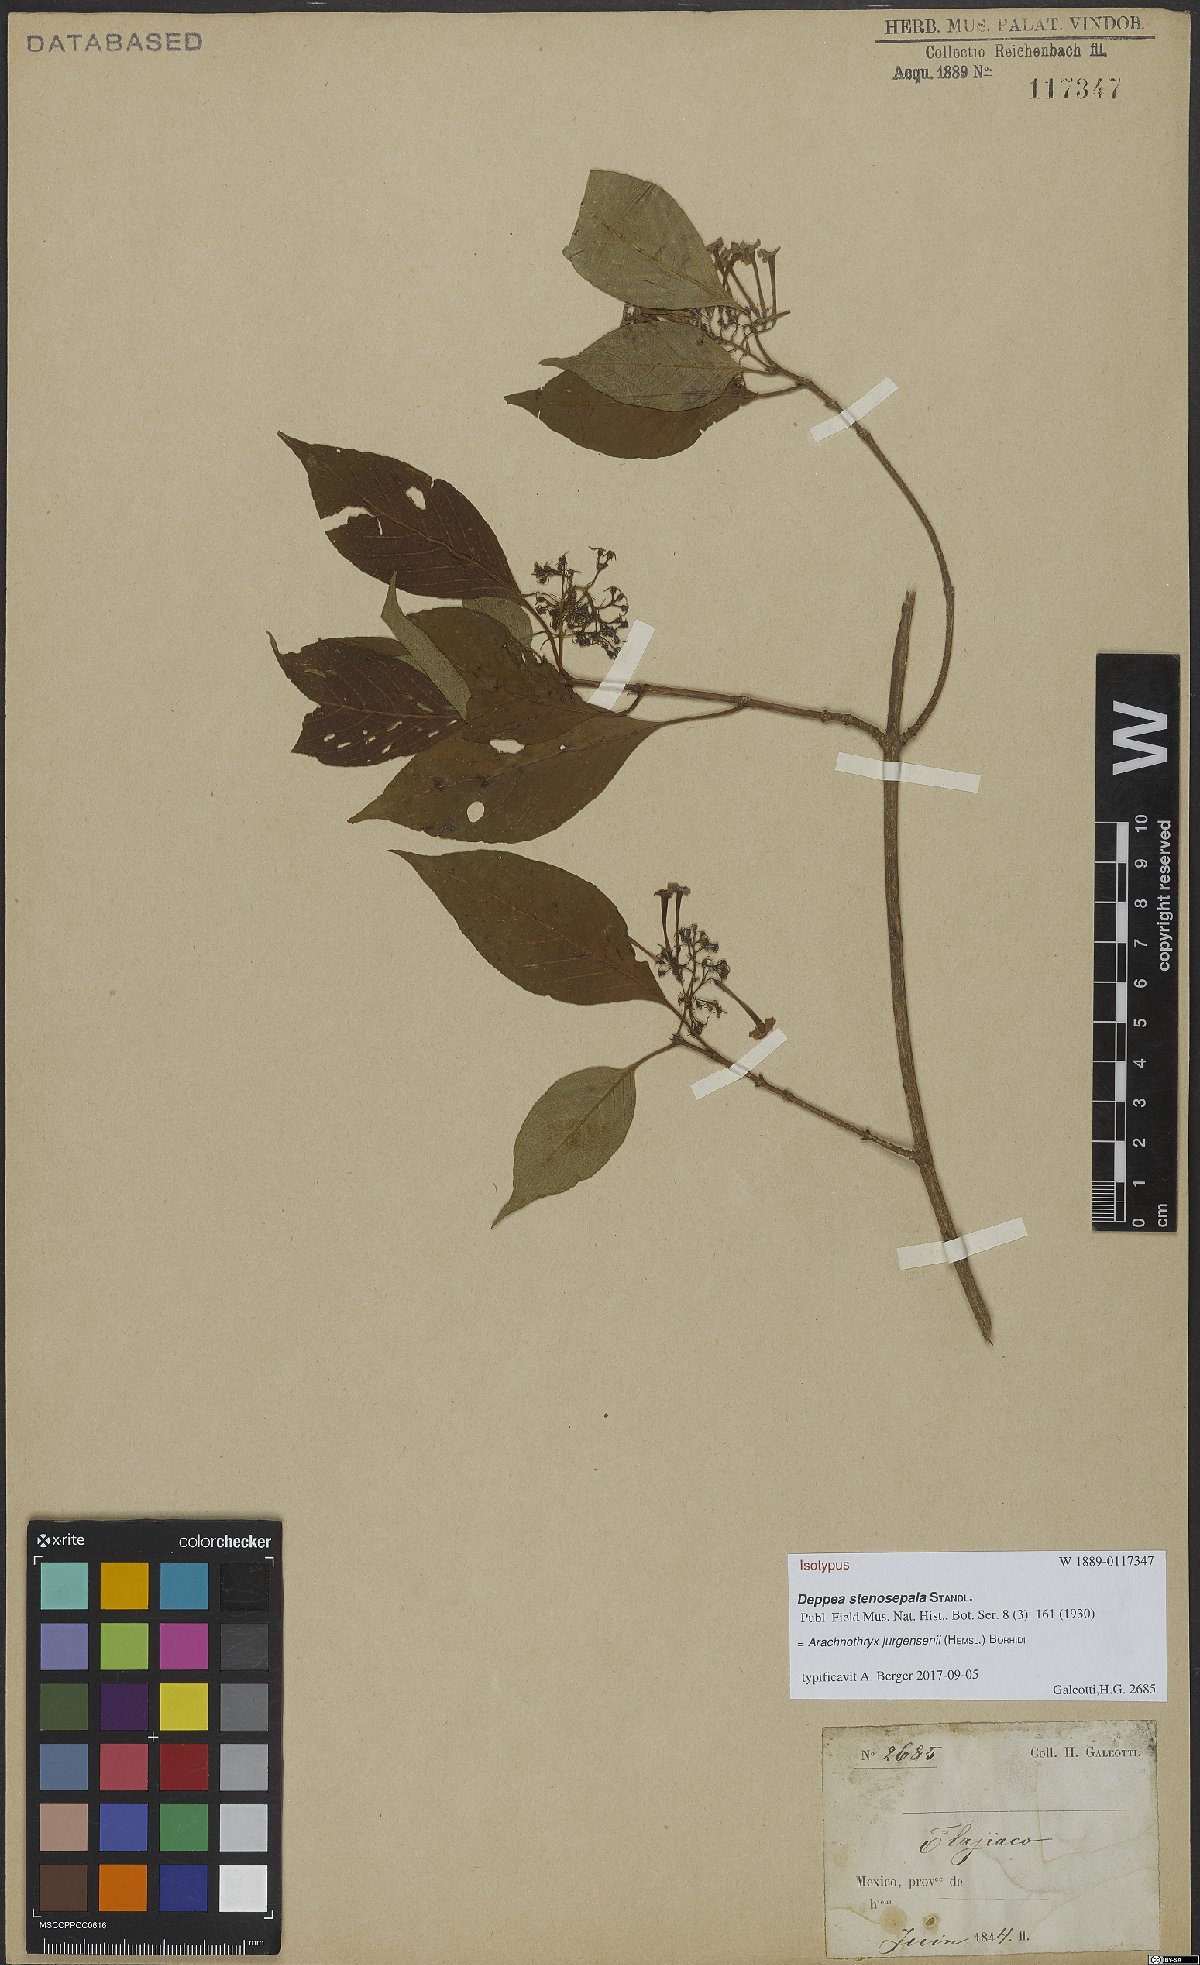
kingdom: Plantae
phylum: Tracheophyta
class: Magnoliopsida
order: Gentianales
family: Rubiaceae
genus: Arachnothryx
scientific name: Arachnothryx jurgensenii
